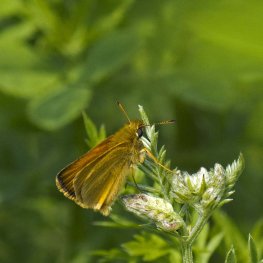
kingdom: Animalia
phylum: Arthropoda
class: Insecta
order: Lepidoptera
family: Hesperiidae
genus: Thymelicus
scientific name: Thymelicus lineola
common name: European Skipper
